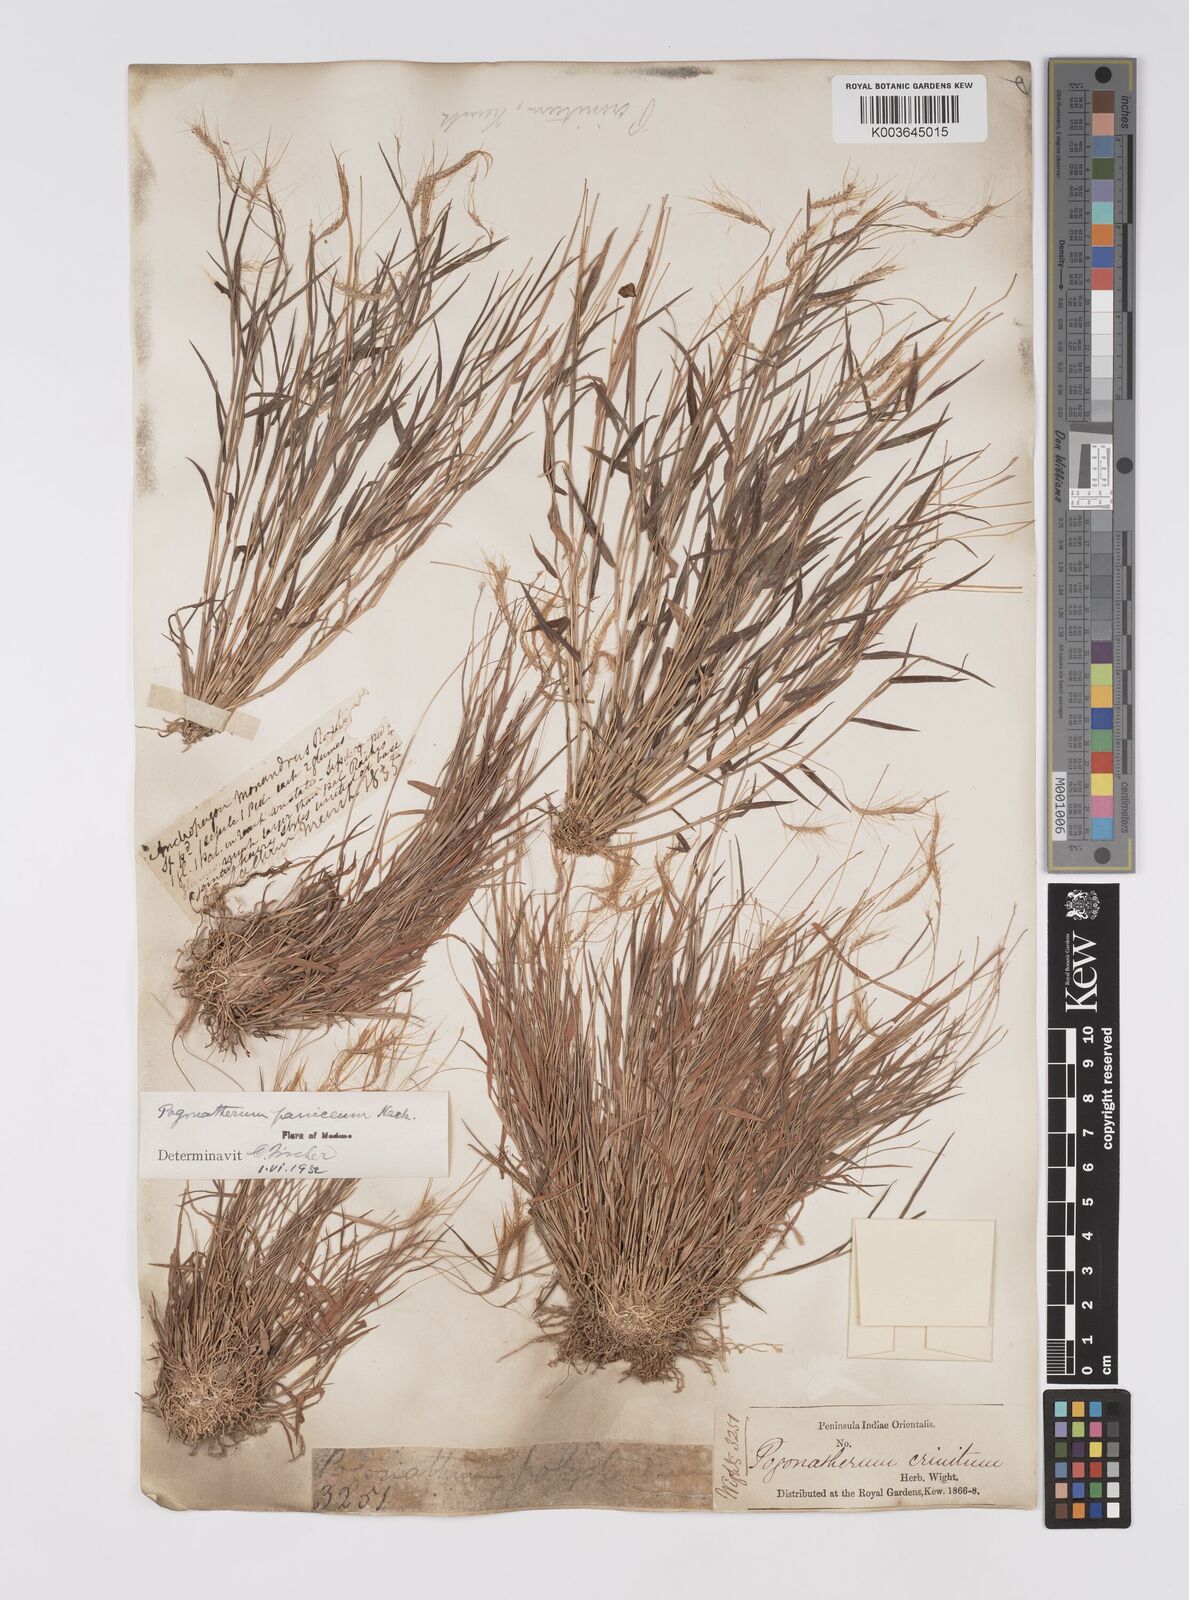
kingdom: Plantae
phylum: Tracheophyta
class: Liliopsida
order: Poales
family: Poaceae
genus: Pogonatherum
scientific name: Pogonatherum crinitum
